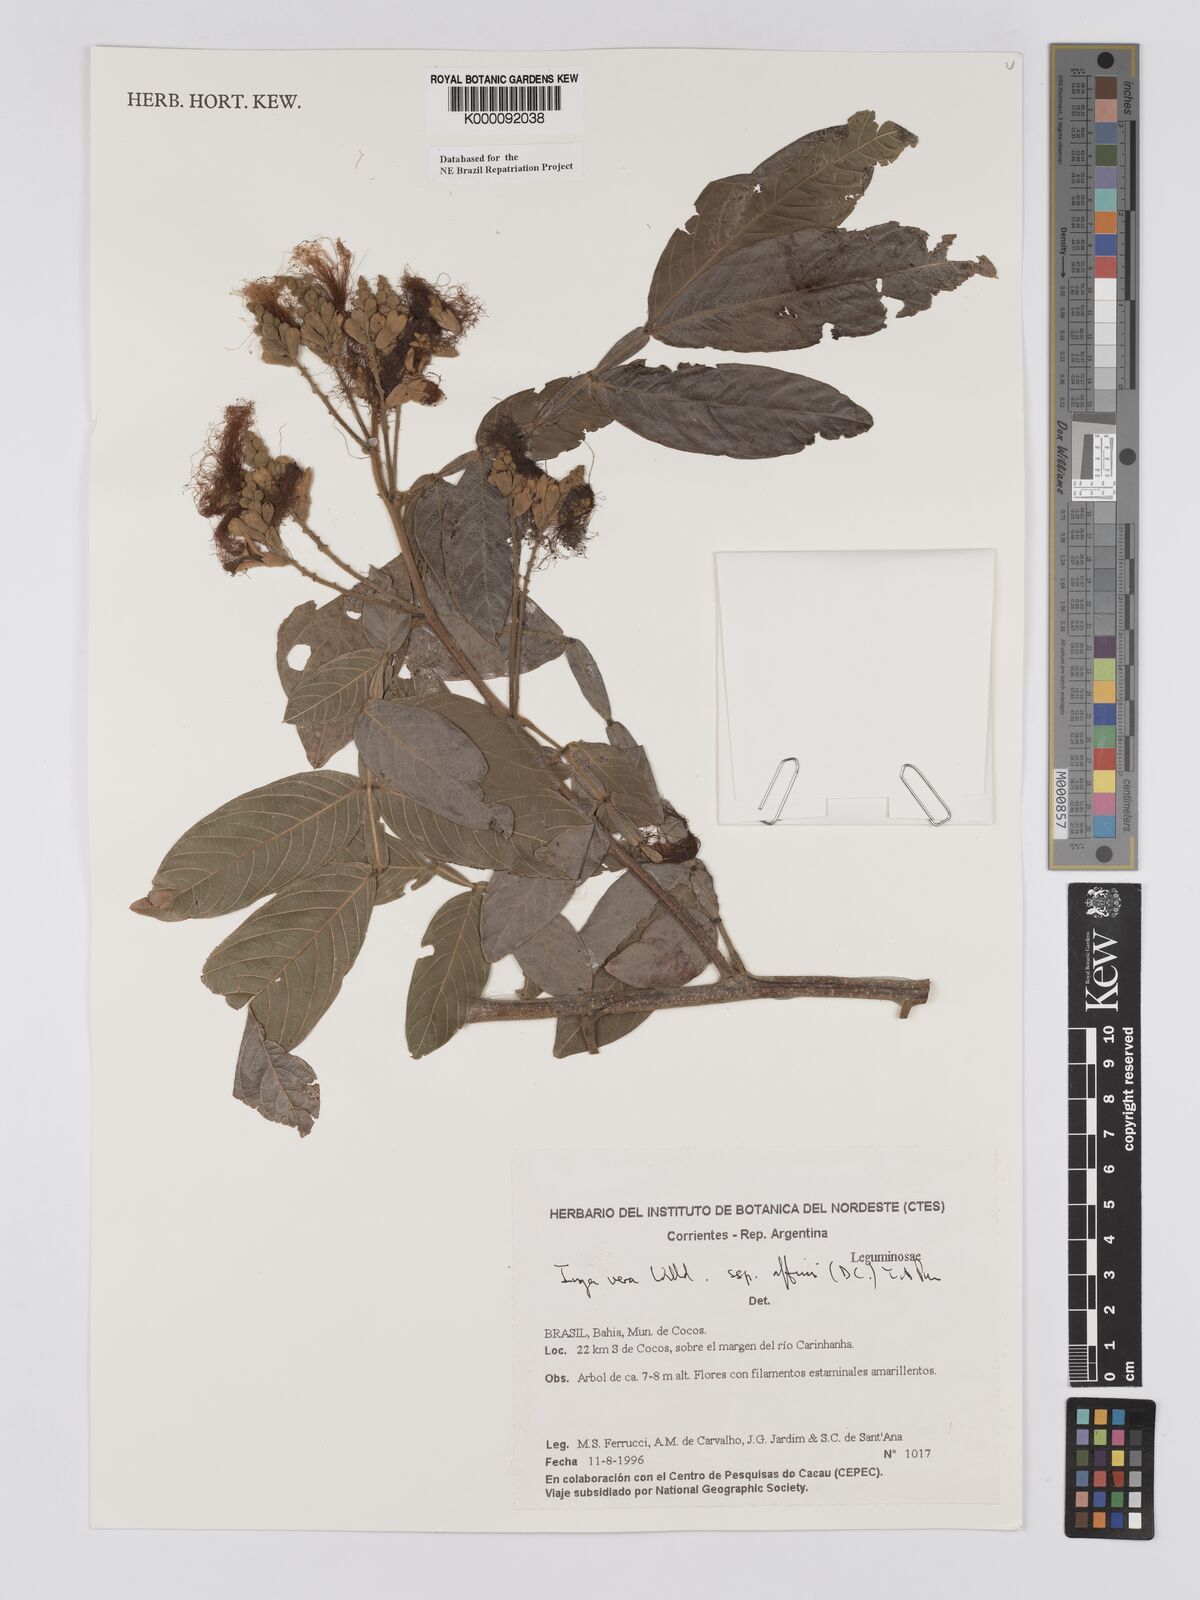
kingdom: Plantae
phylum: Tracheophyta
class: Magnoliopsida
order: Fabales
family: Fabaceae
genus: Inga
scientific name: Inga affinis
